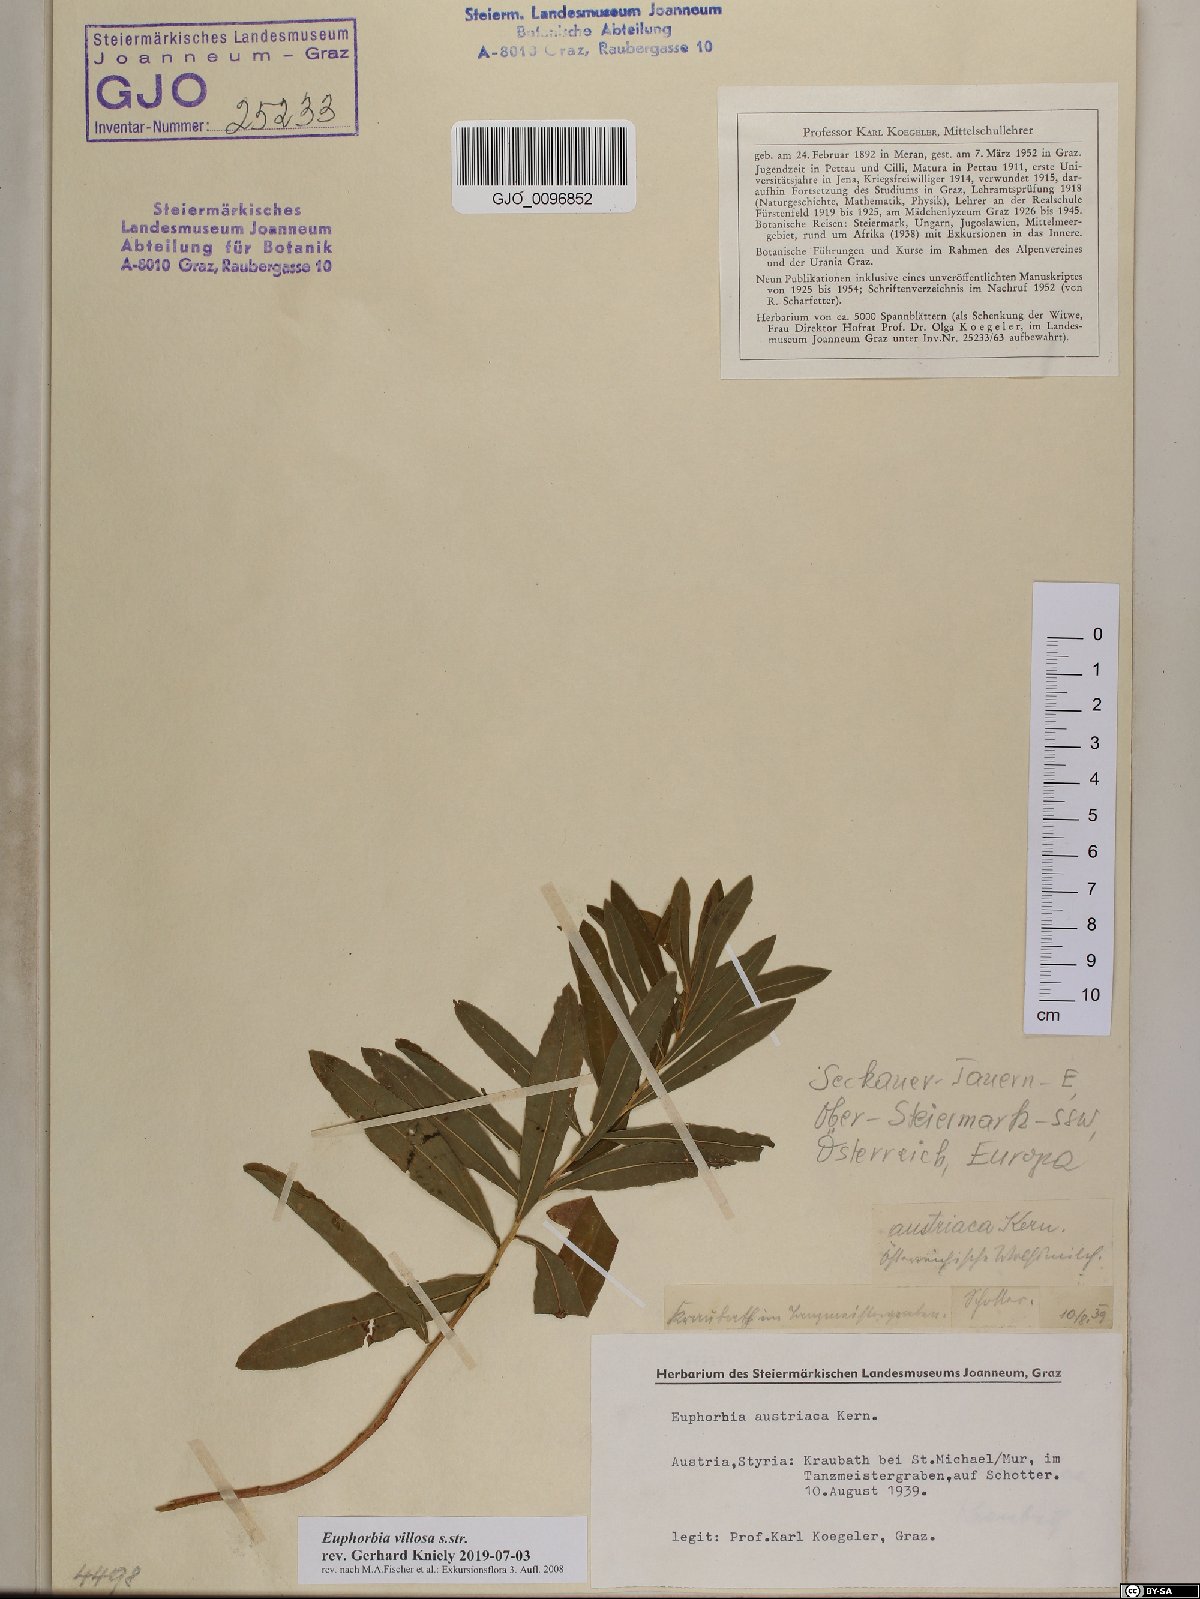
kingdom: Plantae
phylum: Tracheophyta
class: Magnoliopsida
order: Malpighiales
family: Euphorbiaceae
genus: Euphorbia
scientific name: Euphorbia illirica
